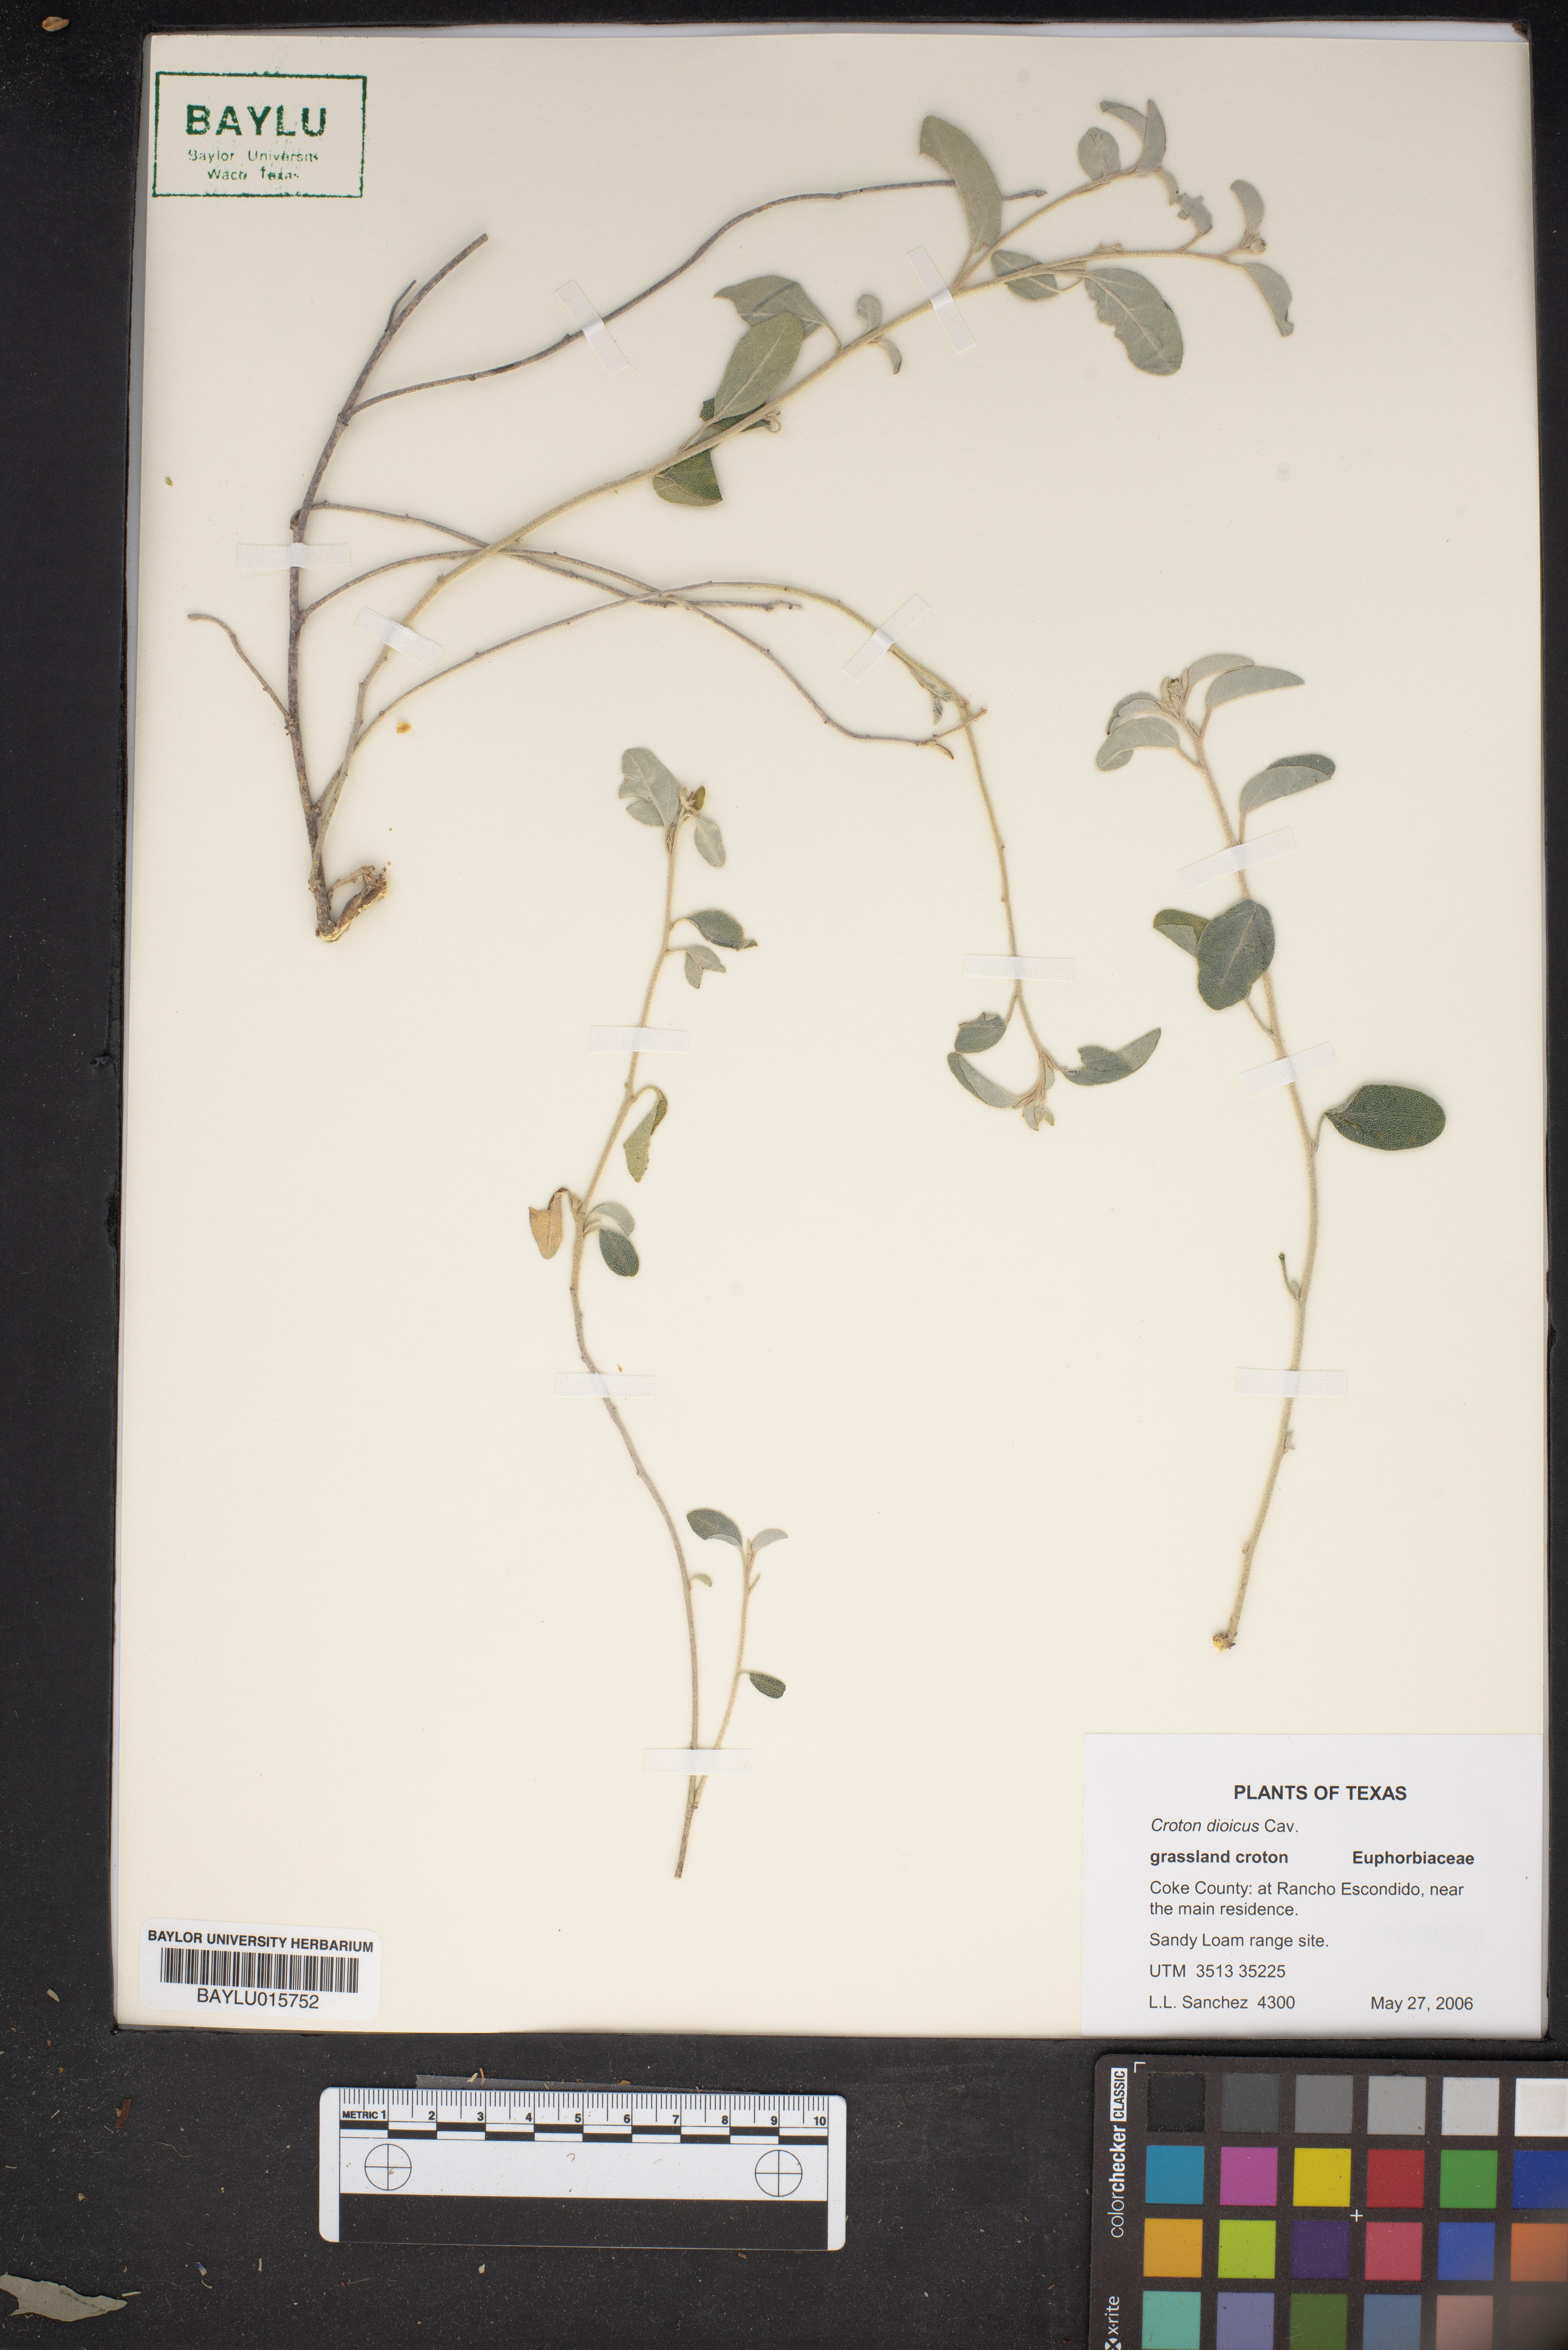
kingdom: Plantae
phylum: Tracheophyta
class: Magnoliopsida
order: Malpighiales
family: Euphorbiaceae
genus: Croton
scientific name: Croton dioicus
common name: Grassland croton
